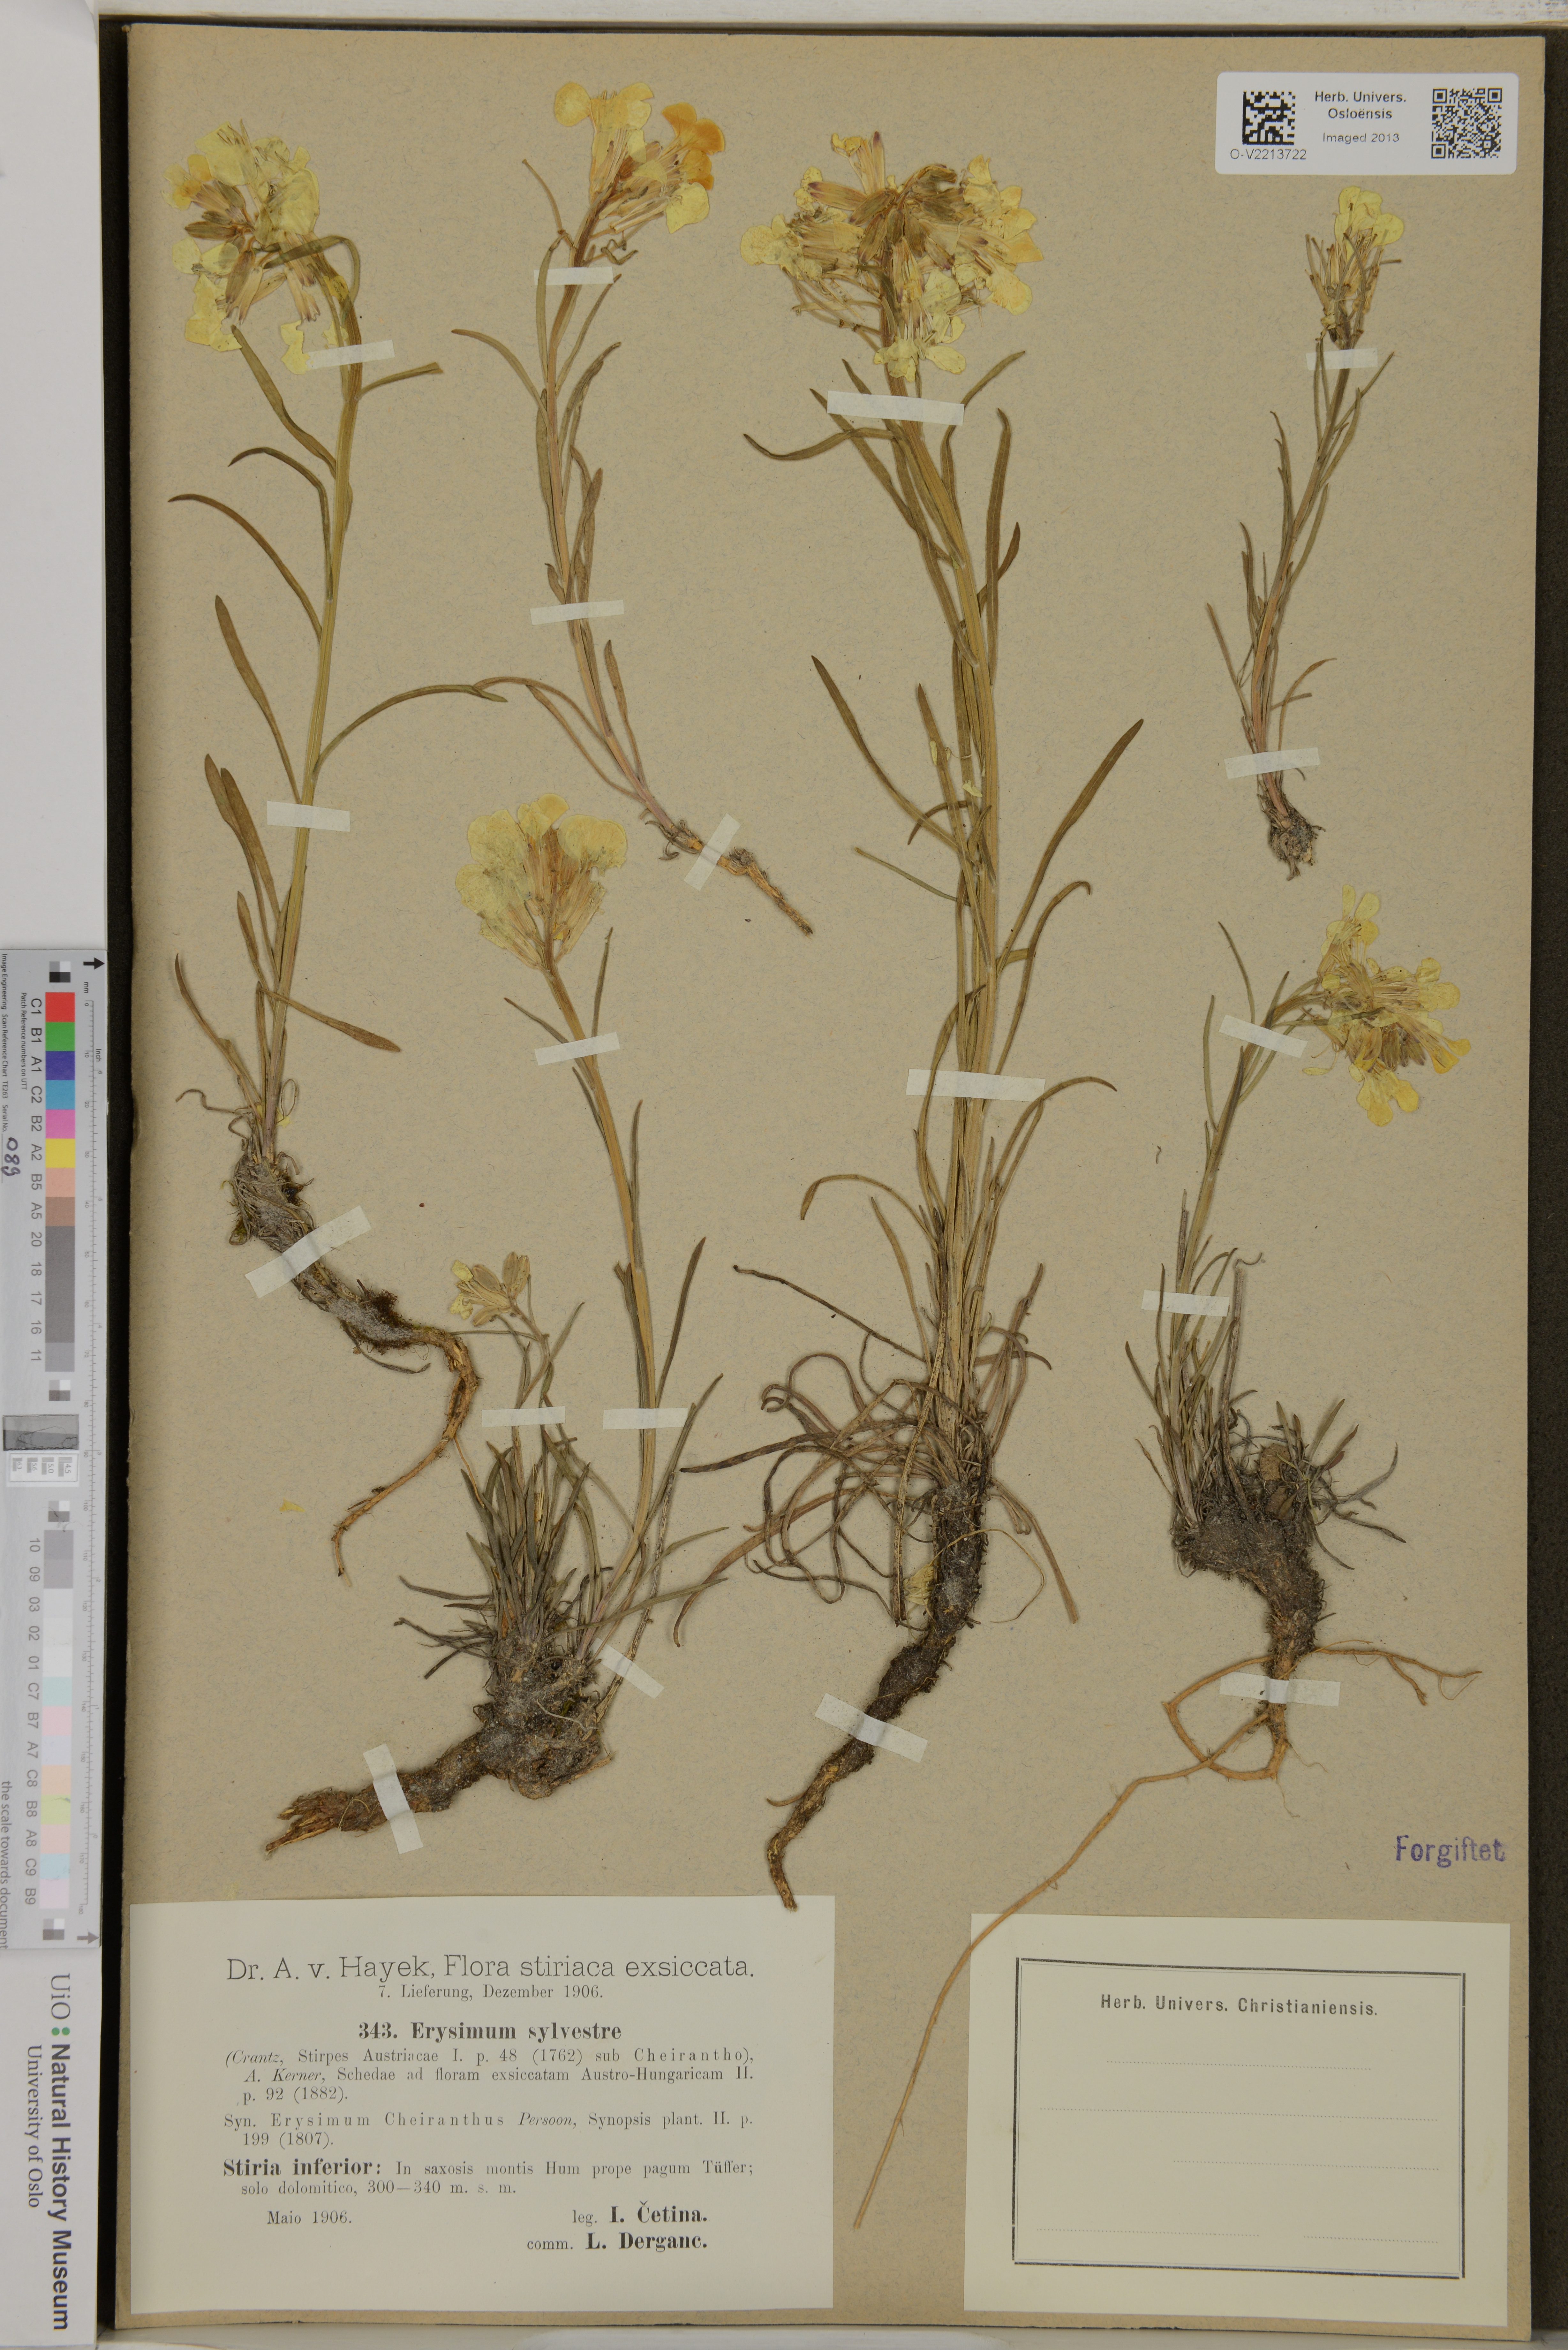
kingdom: Plantae
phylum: Tracheophyta
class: Magnoliopsida
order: Brassicales
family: Brassicaceae
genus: Erysimum
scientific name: Erysimum sylvestre
